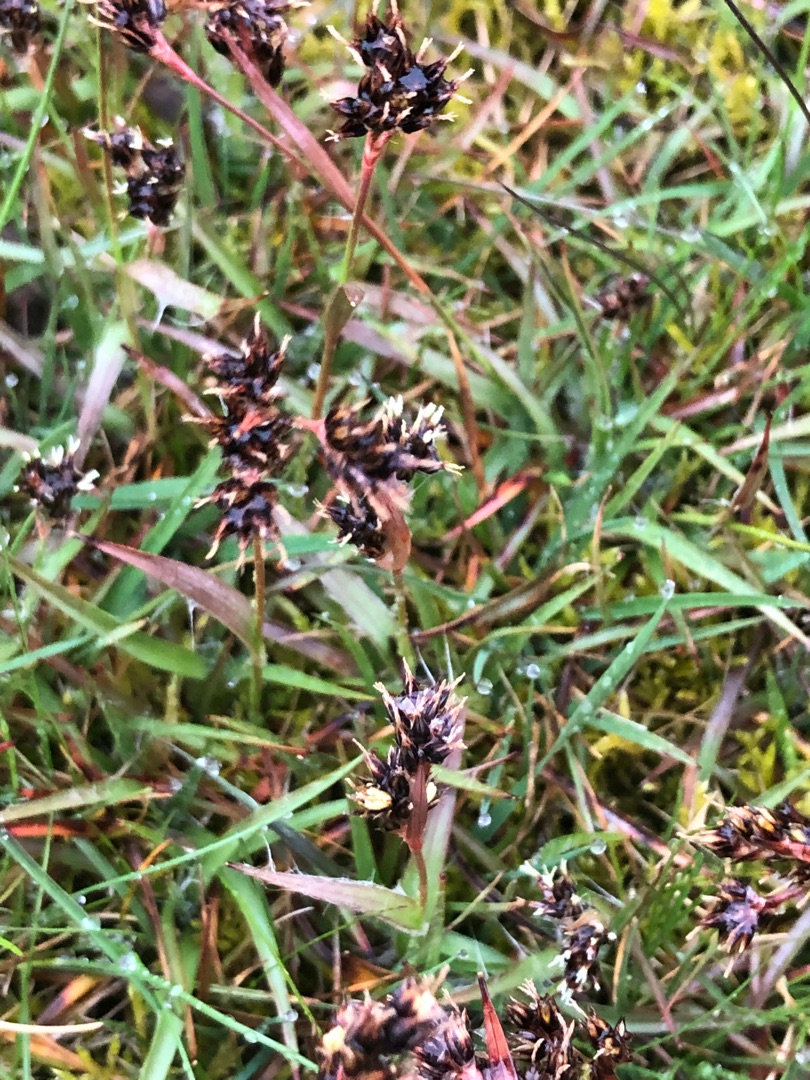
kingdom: Plantae
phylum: Tracheophyta
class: Liliopsida
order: Poales
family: Juncaceae
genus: Luzula
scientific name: Luzula campestris
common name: Mark-frytle
